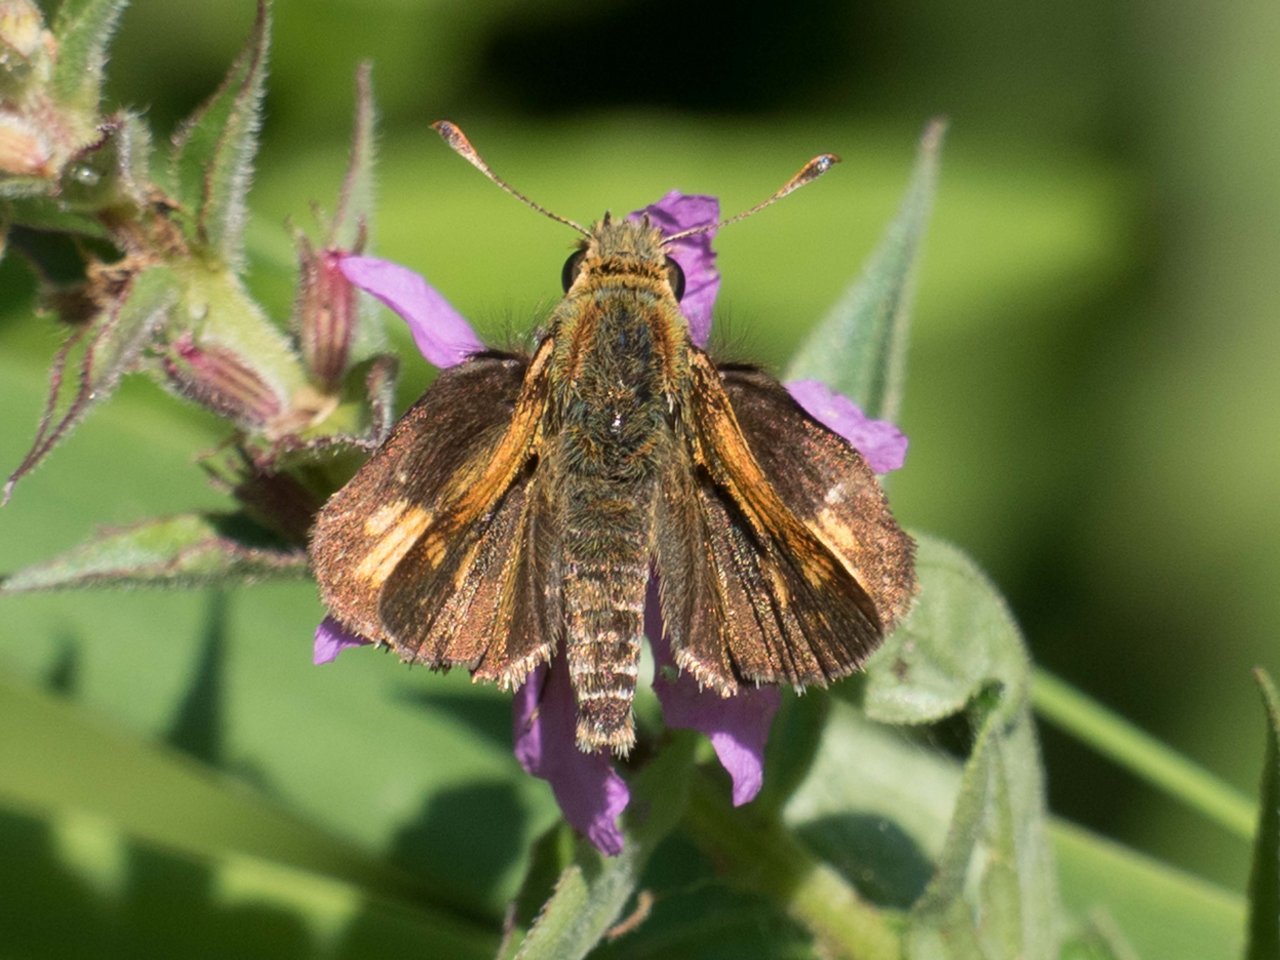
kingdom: Animalia
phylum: Arthropoda
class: Insecta
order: Lepidoptera
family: Hesperiidae
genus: Polites
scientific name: Polites coras
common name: Peck's Skipper
